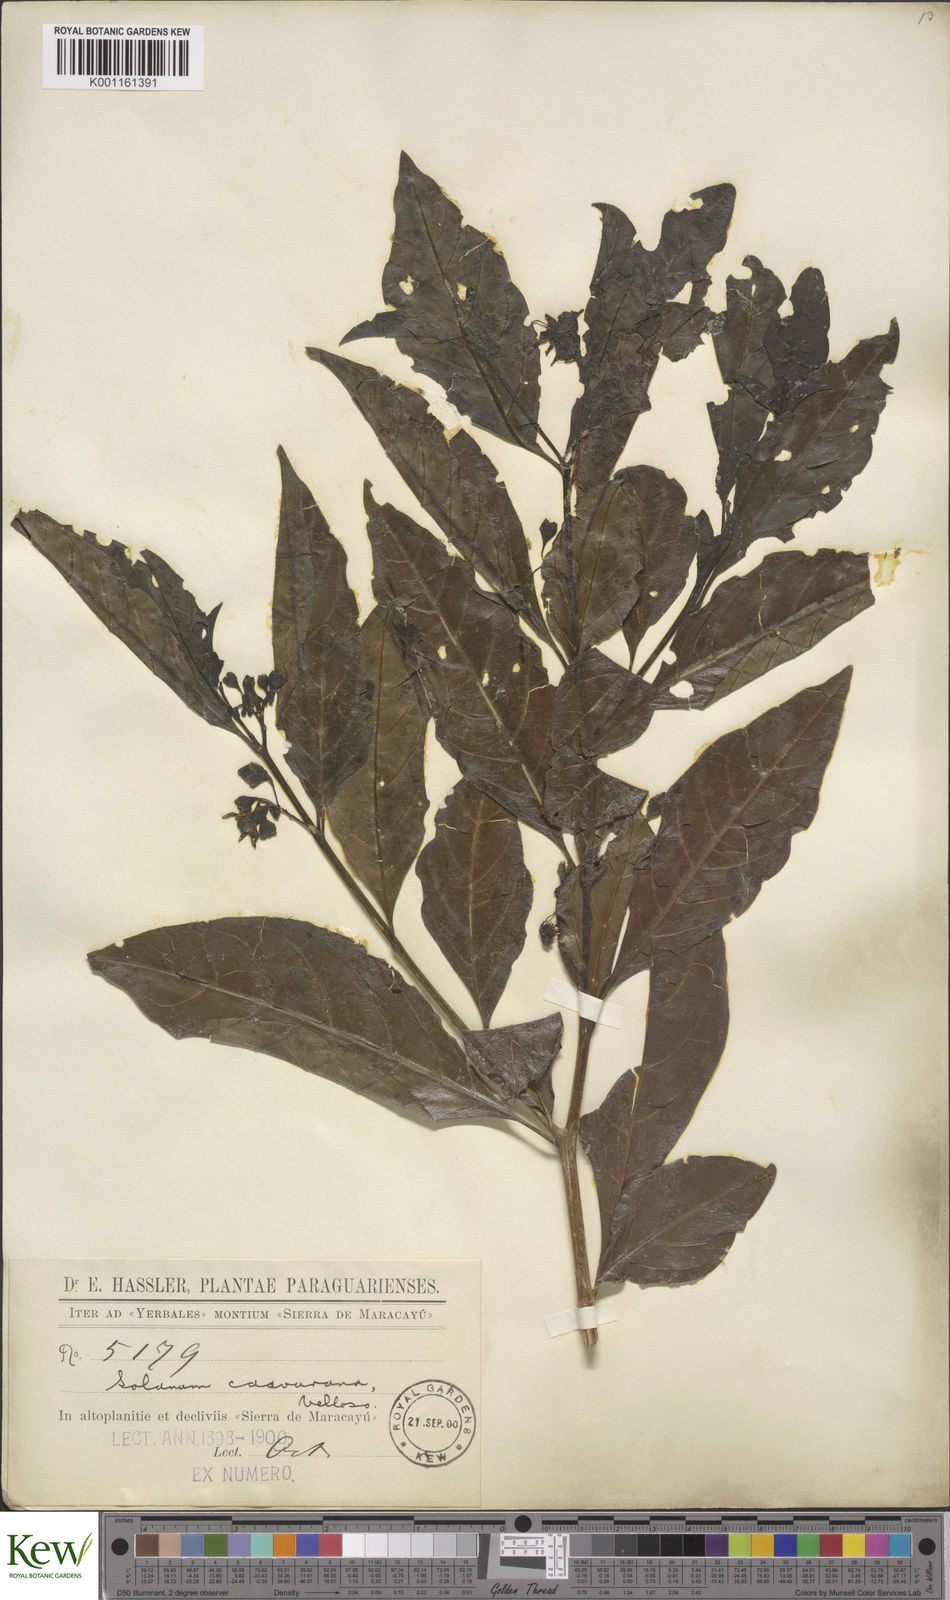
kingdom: Plantae
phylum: Tracheophyta
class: Magnoliopsida
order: Solanales
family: Solanaceae
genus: Solanum
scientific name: Solanum caavurana
